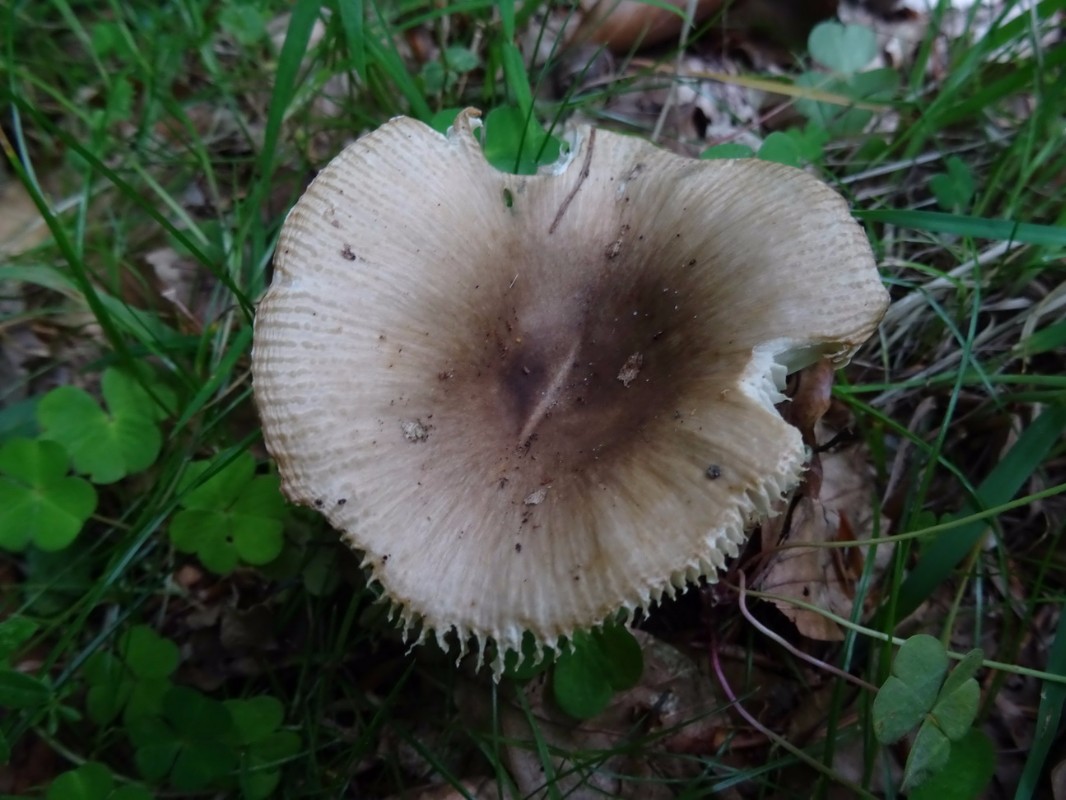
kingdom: Fungi
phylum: Basidiomycota
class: Agaricomycetes
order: Russulales
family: Russulaceae
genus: Russula
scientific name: Russula recondita
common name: mild kam-skørhat
